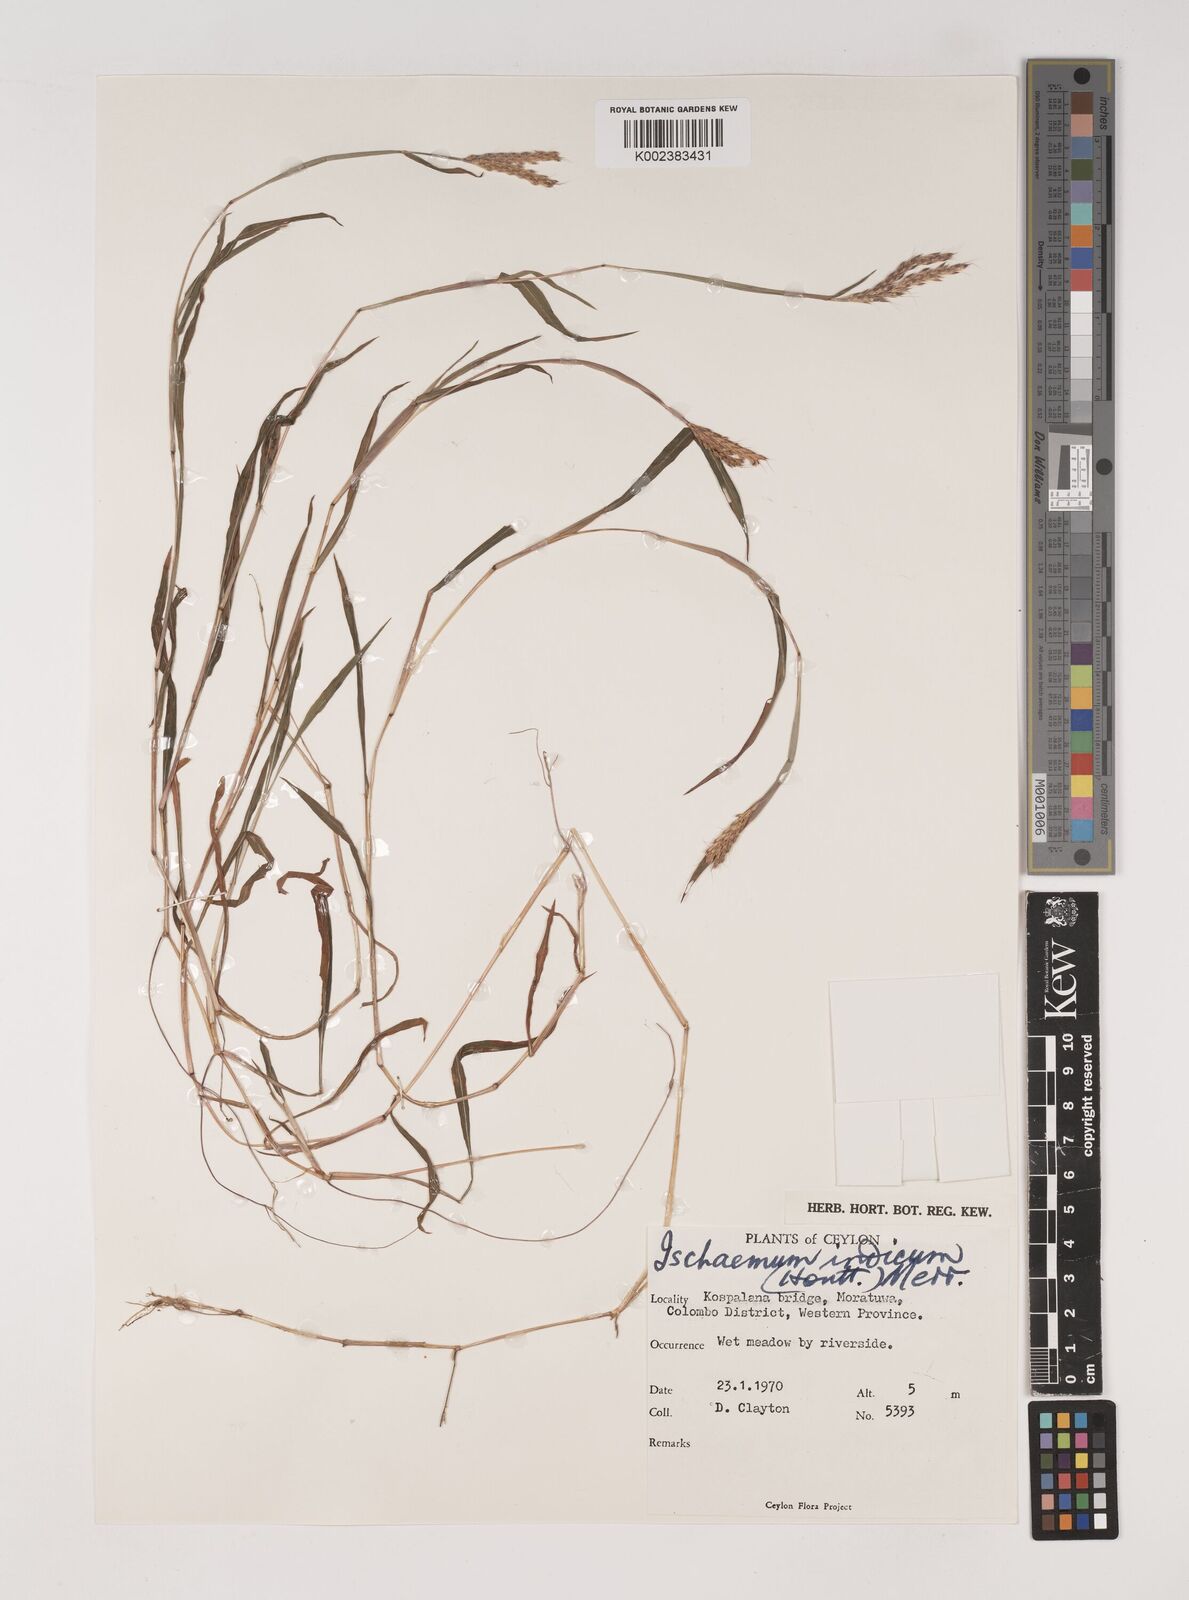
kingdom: Plantae
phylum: Tracheophyta
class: Liliopsida
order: Poales
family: Poaceae
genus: Polytrias
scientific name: Polytrias indica
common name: Indian murainagrass
